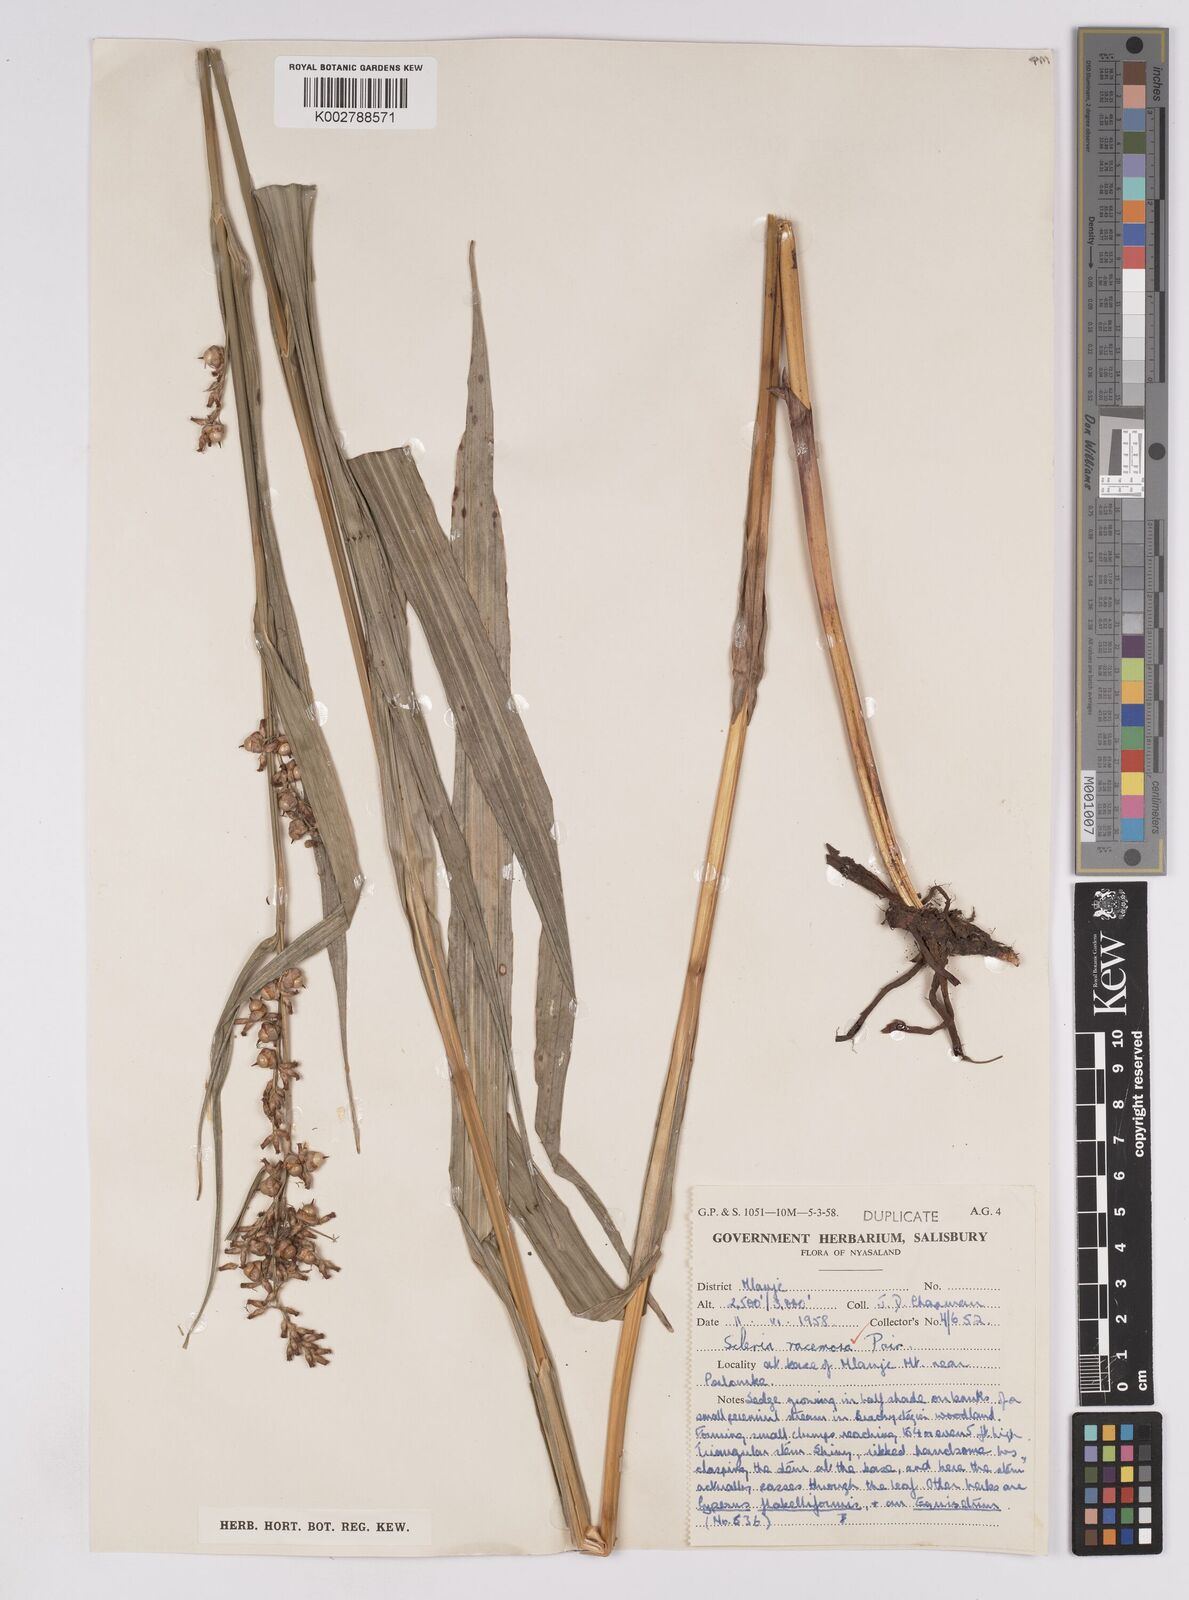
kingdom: Plantae
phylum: Tracheophyta
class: Liliopsida
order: Poales
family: Cyperaceae
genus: Scleria
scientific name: Scleria racemosa
